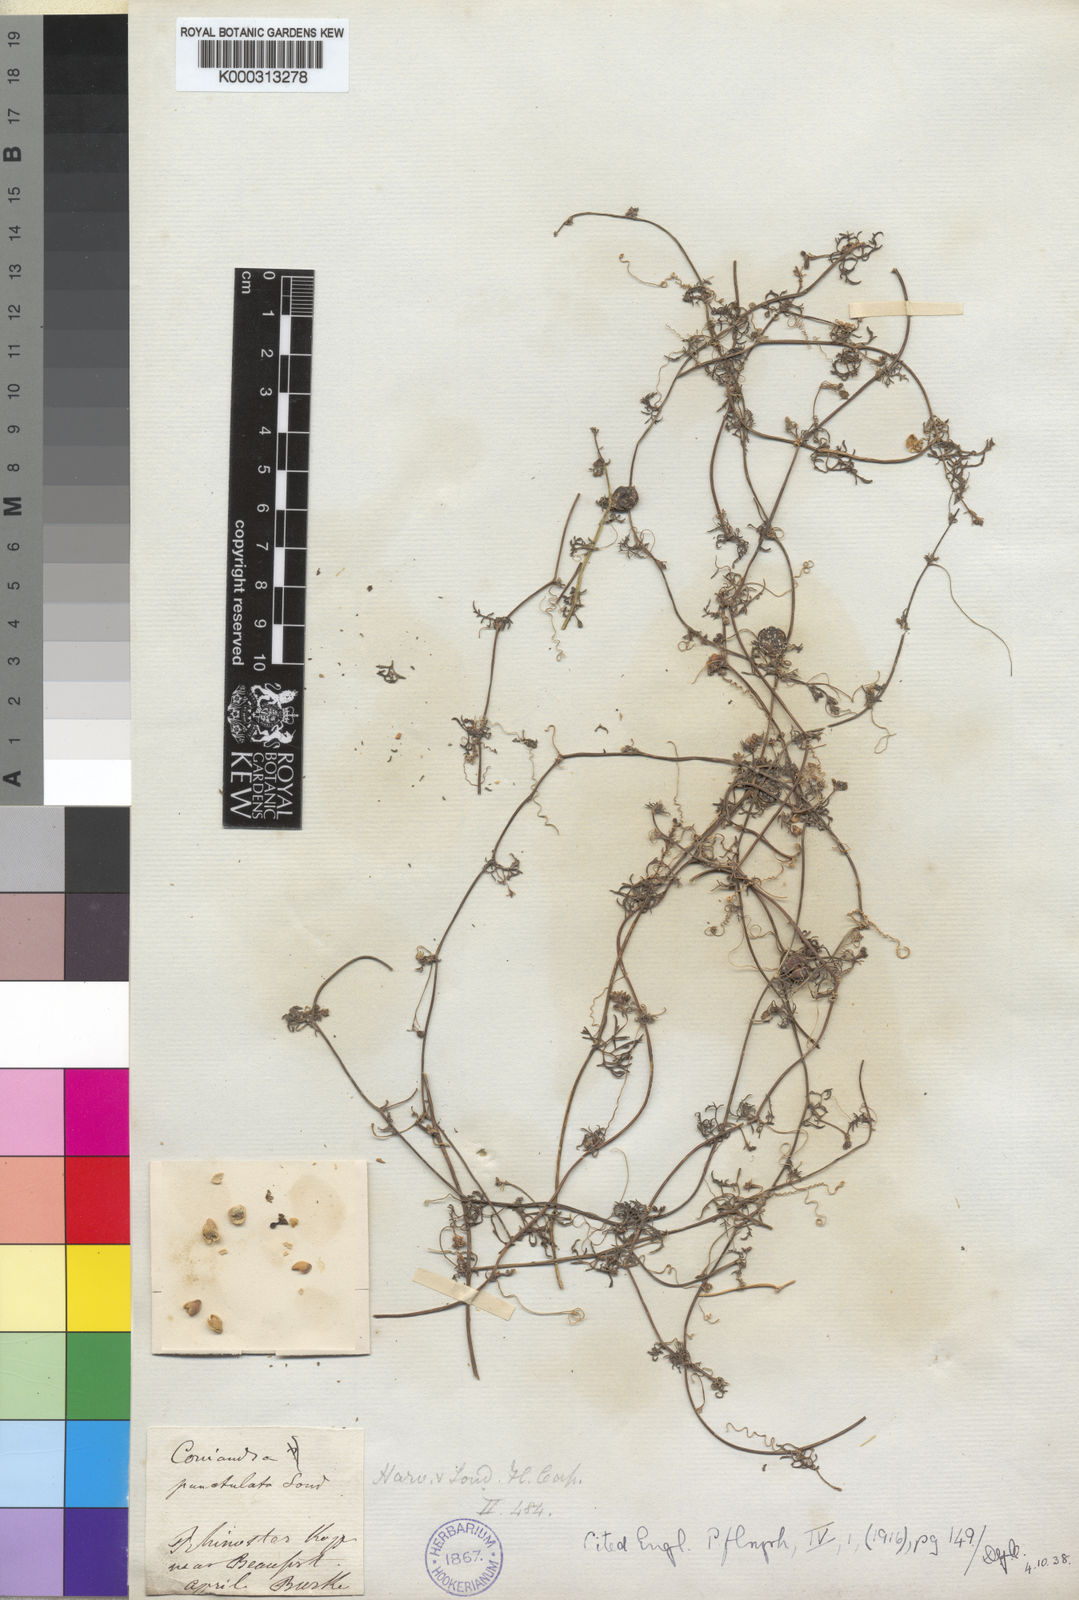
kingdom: Plantae
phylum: Tracheophyta
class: Magnoliopsida
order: Cucurbitales
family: Cucurbitaceae
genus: Kedrostis
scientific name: Kedrostis africana
